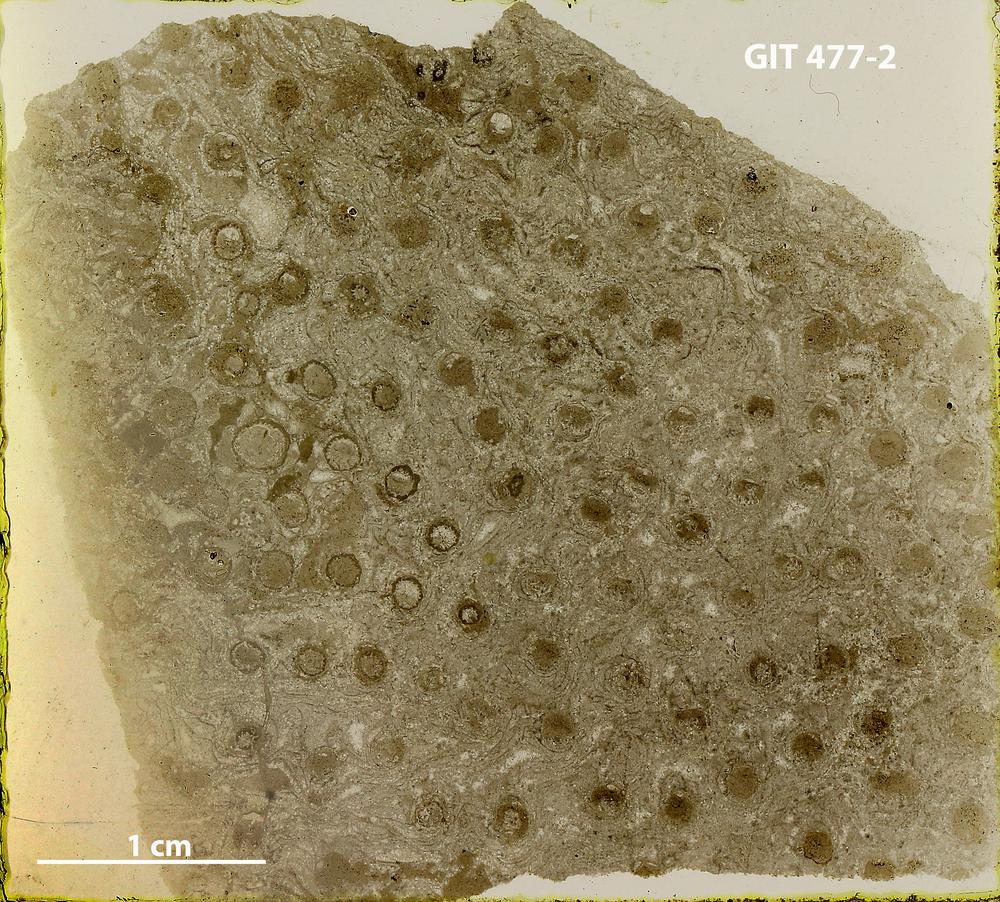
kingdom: Animalia
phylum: Porifera
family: Rosenellidae
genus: Pseudostylodictyon
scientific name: Pseudostylodictyon
